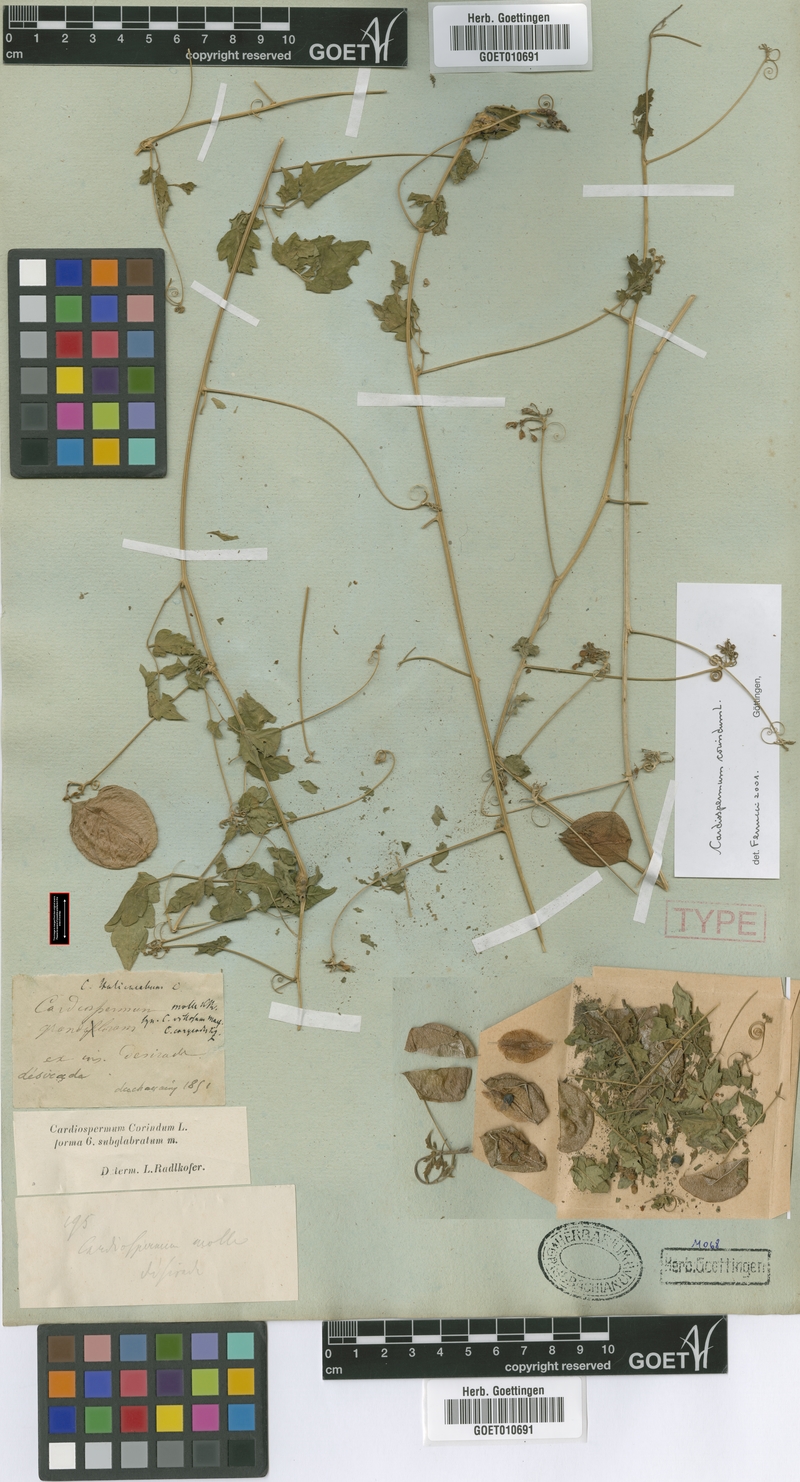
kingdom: Plantae
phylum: Tracheophyta
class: Magnoliopsida
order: Sapindales
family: Sapindaceae
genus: Cardiospermum
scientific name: Cardiospermum corindum
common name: Faux persil
